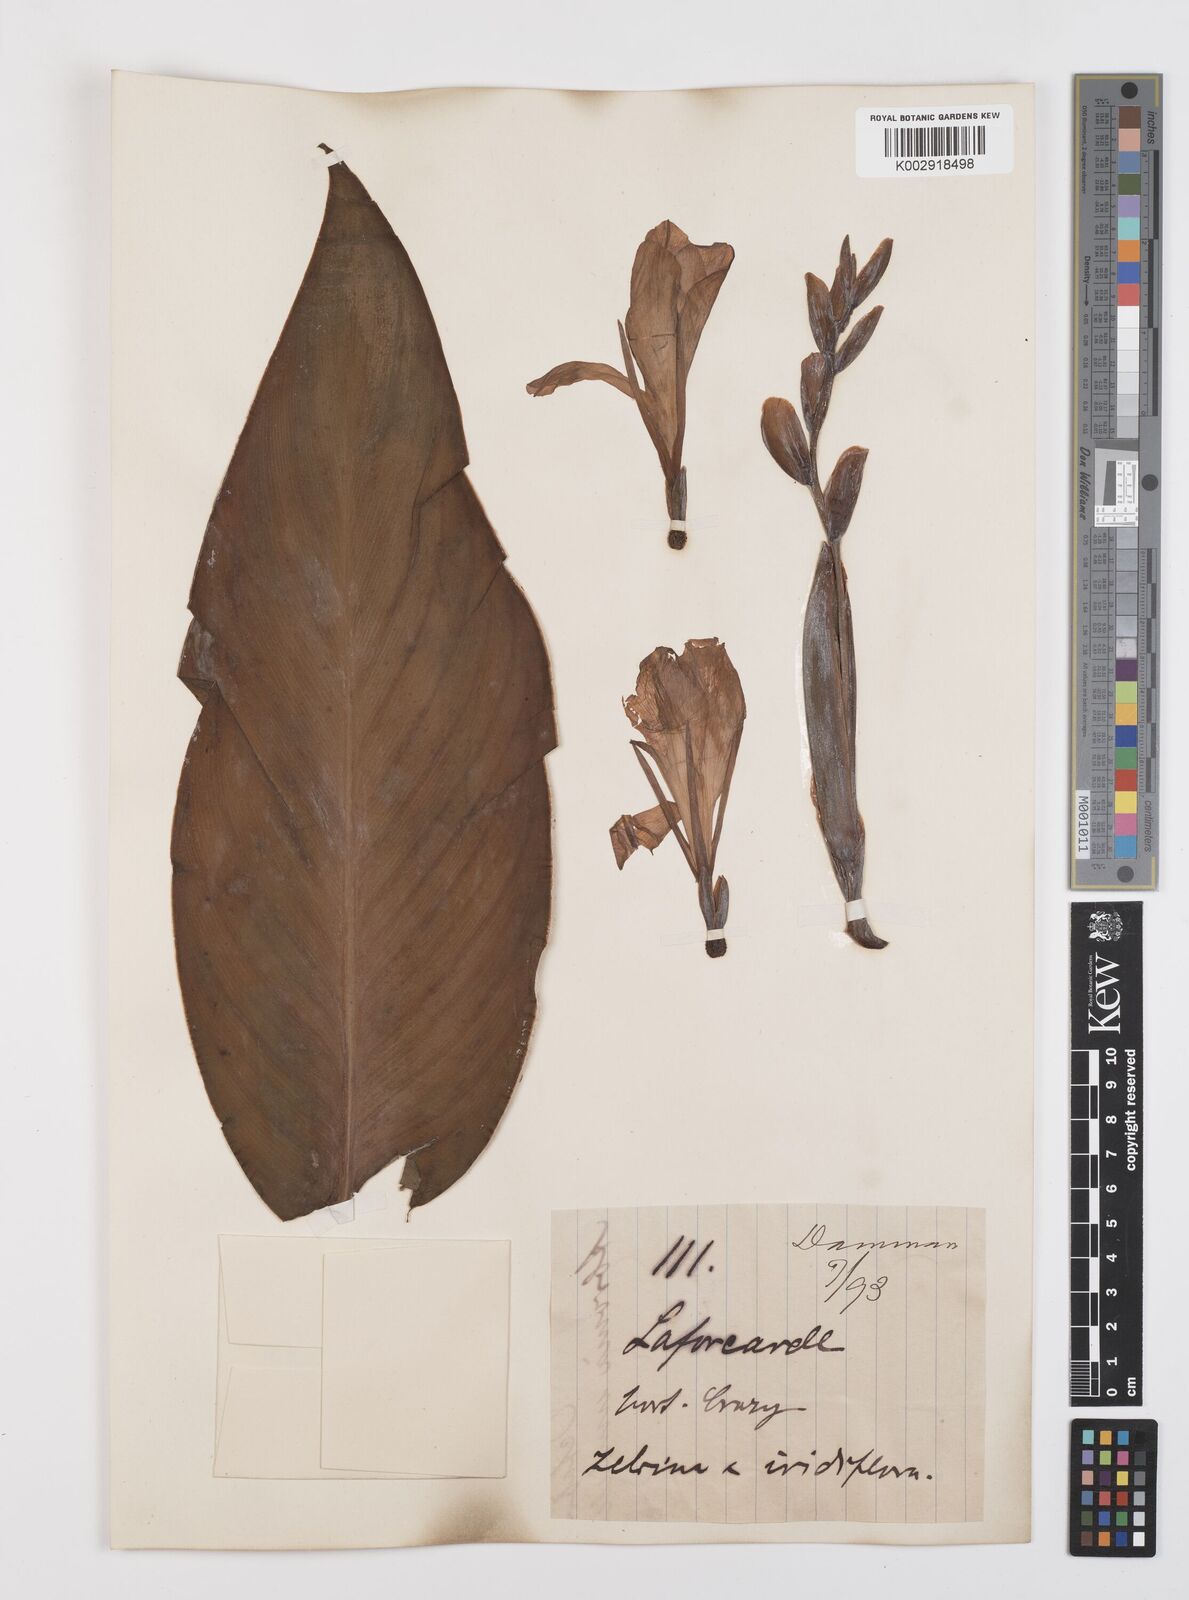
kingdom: Plantae
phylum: Tracheophyta
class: Liliopsida
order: Zingiberales
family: Cannaceae
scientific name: Cannaceae
